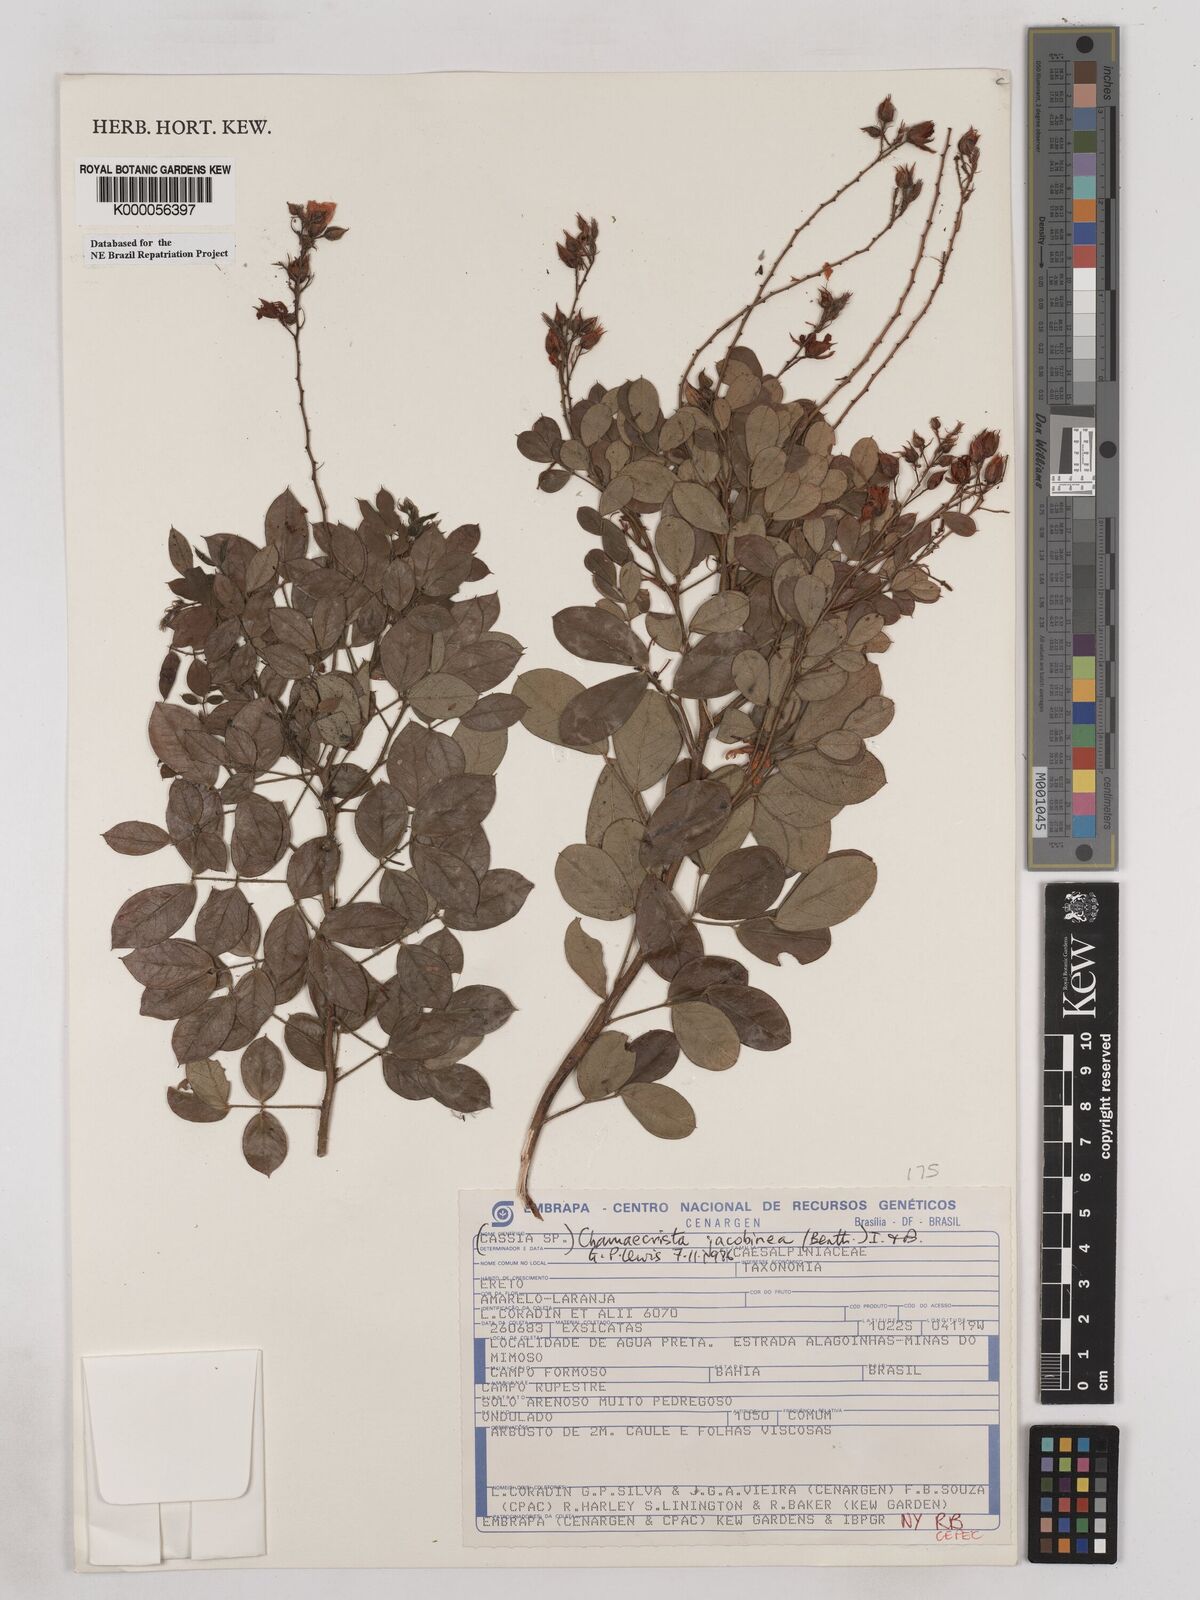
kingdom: Plantae
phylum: Tracheophyta
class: Magnoliopsida
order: Fabales
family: Fabaceae
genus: Chamaecrista
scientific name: Chamaecrista jacobinea
